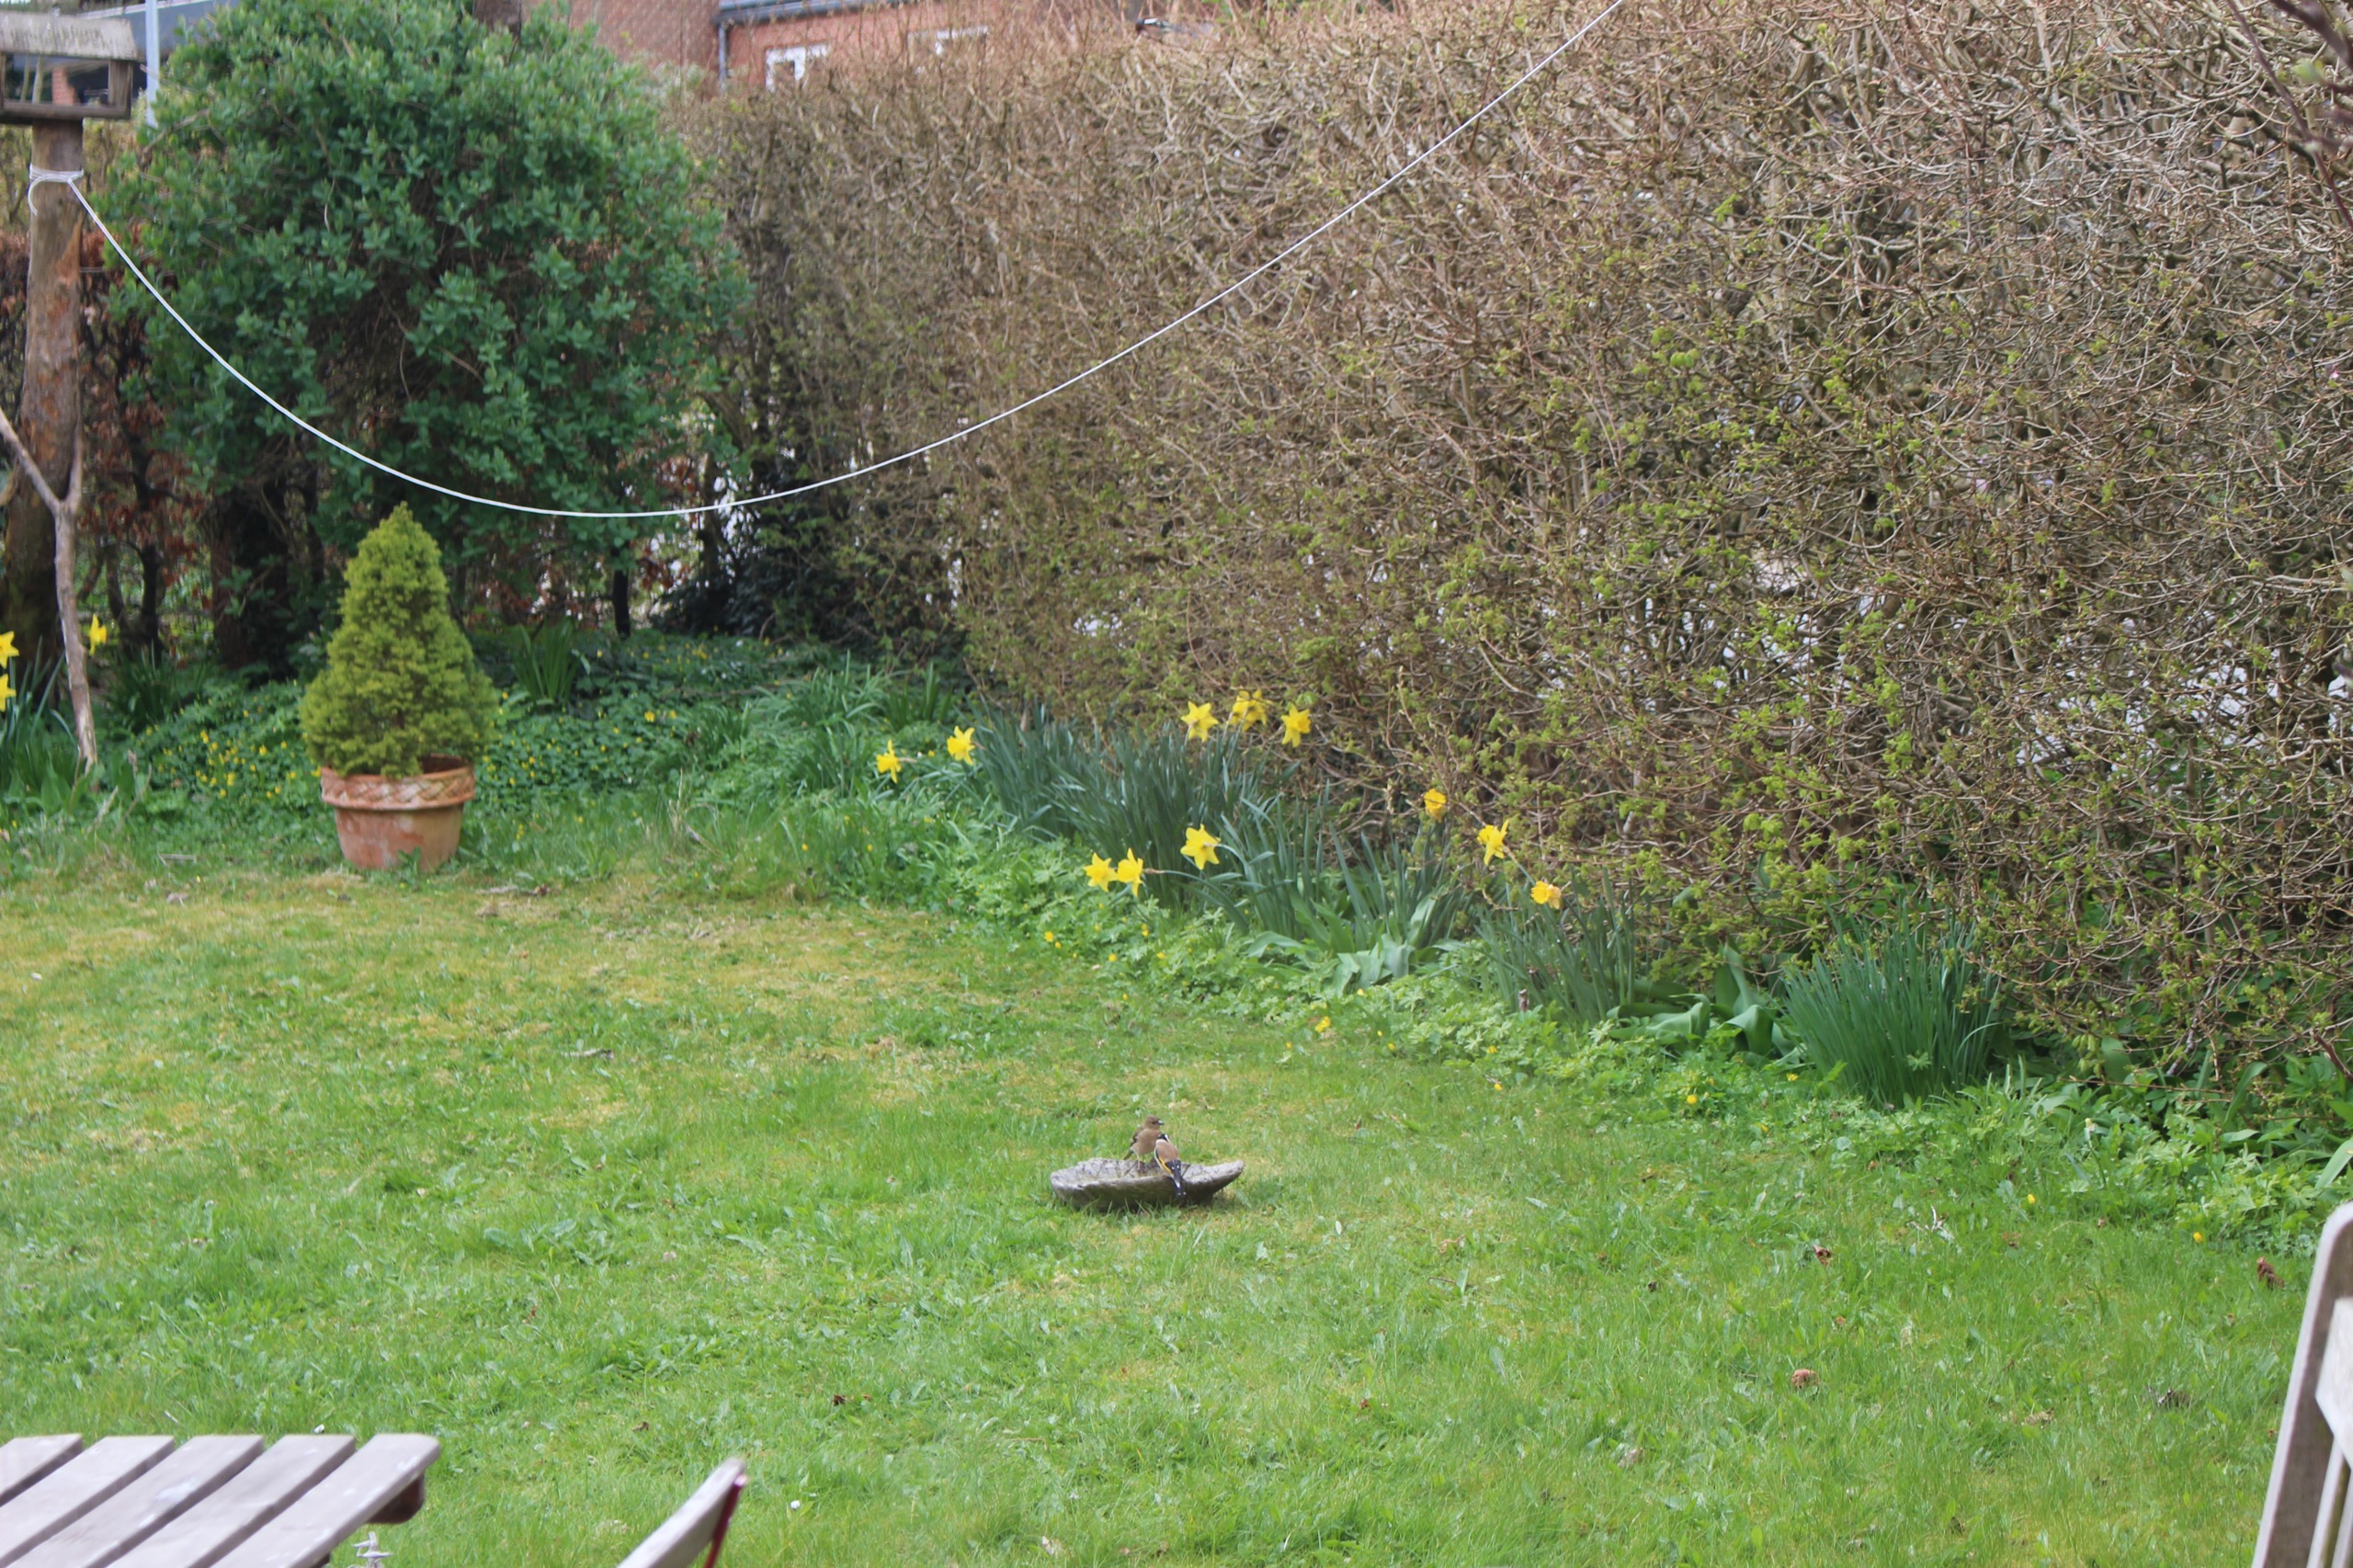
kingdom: Animalia
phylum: Chordata
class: Aves
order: Passeriformes
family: Fringillidae
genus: Carduelis
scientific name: Carduelis carduelis
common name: Stillits
